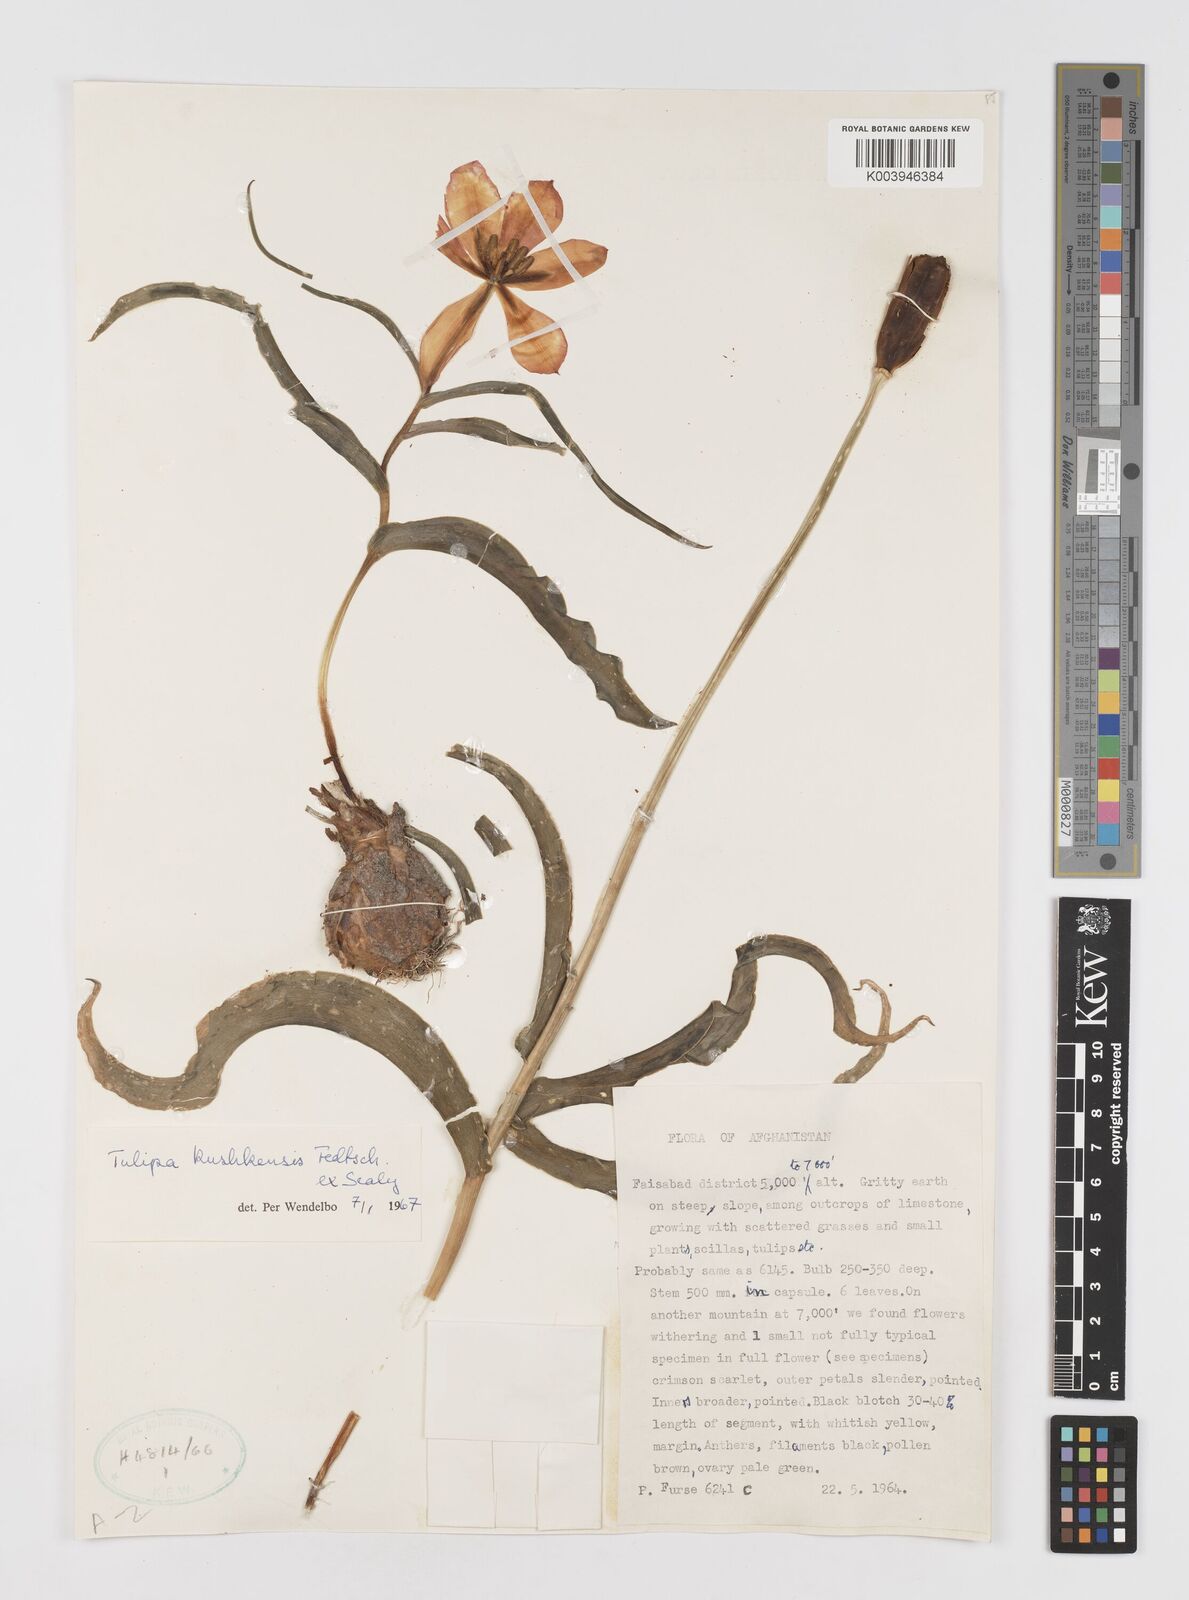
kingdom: Plantae
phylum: Tracheophyta
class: Liliopsida
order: Liliales
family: Liliaceae
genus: Tulipa
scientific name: Tulipa kuschkensis
